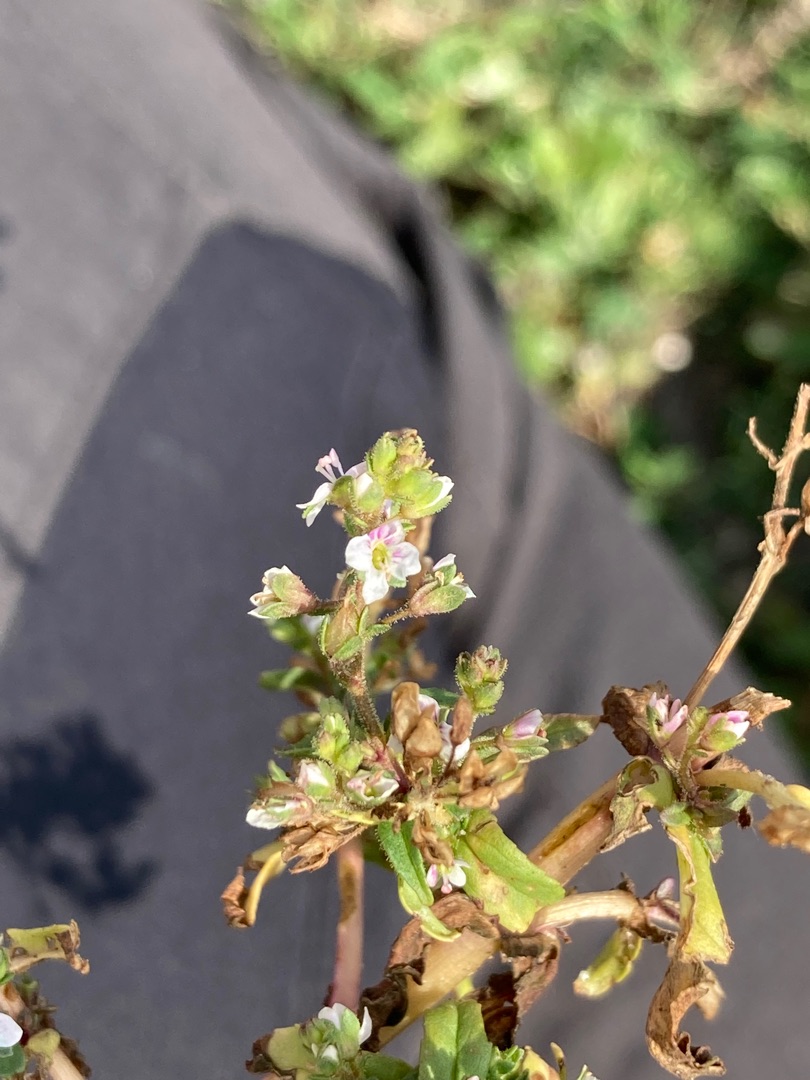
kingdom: Plantae
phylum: Tracheophyta
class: Magnoliopsida
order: Lamiales
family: Plantaginaceae
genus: Veronica
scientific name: Veronica catenata
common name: Vand-ærenpris
